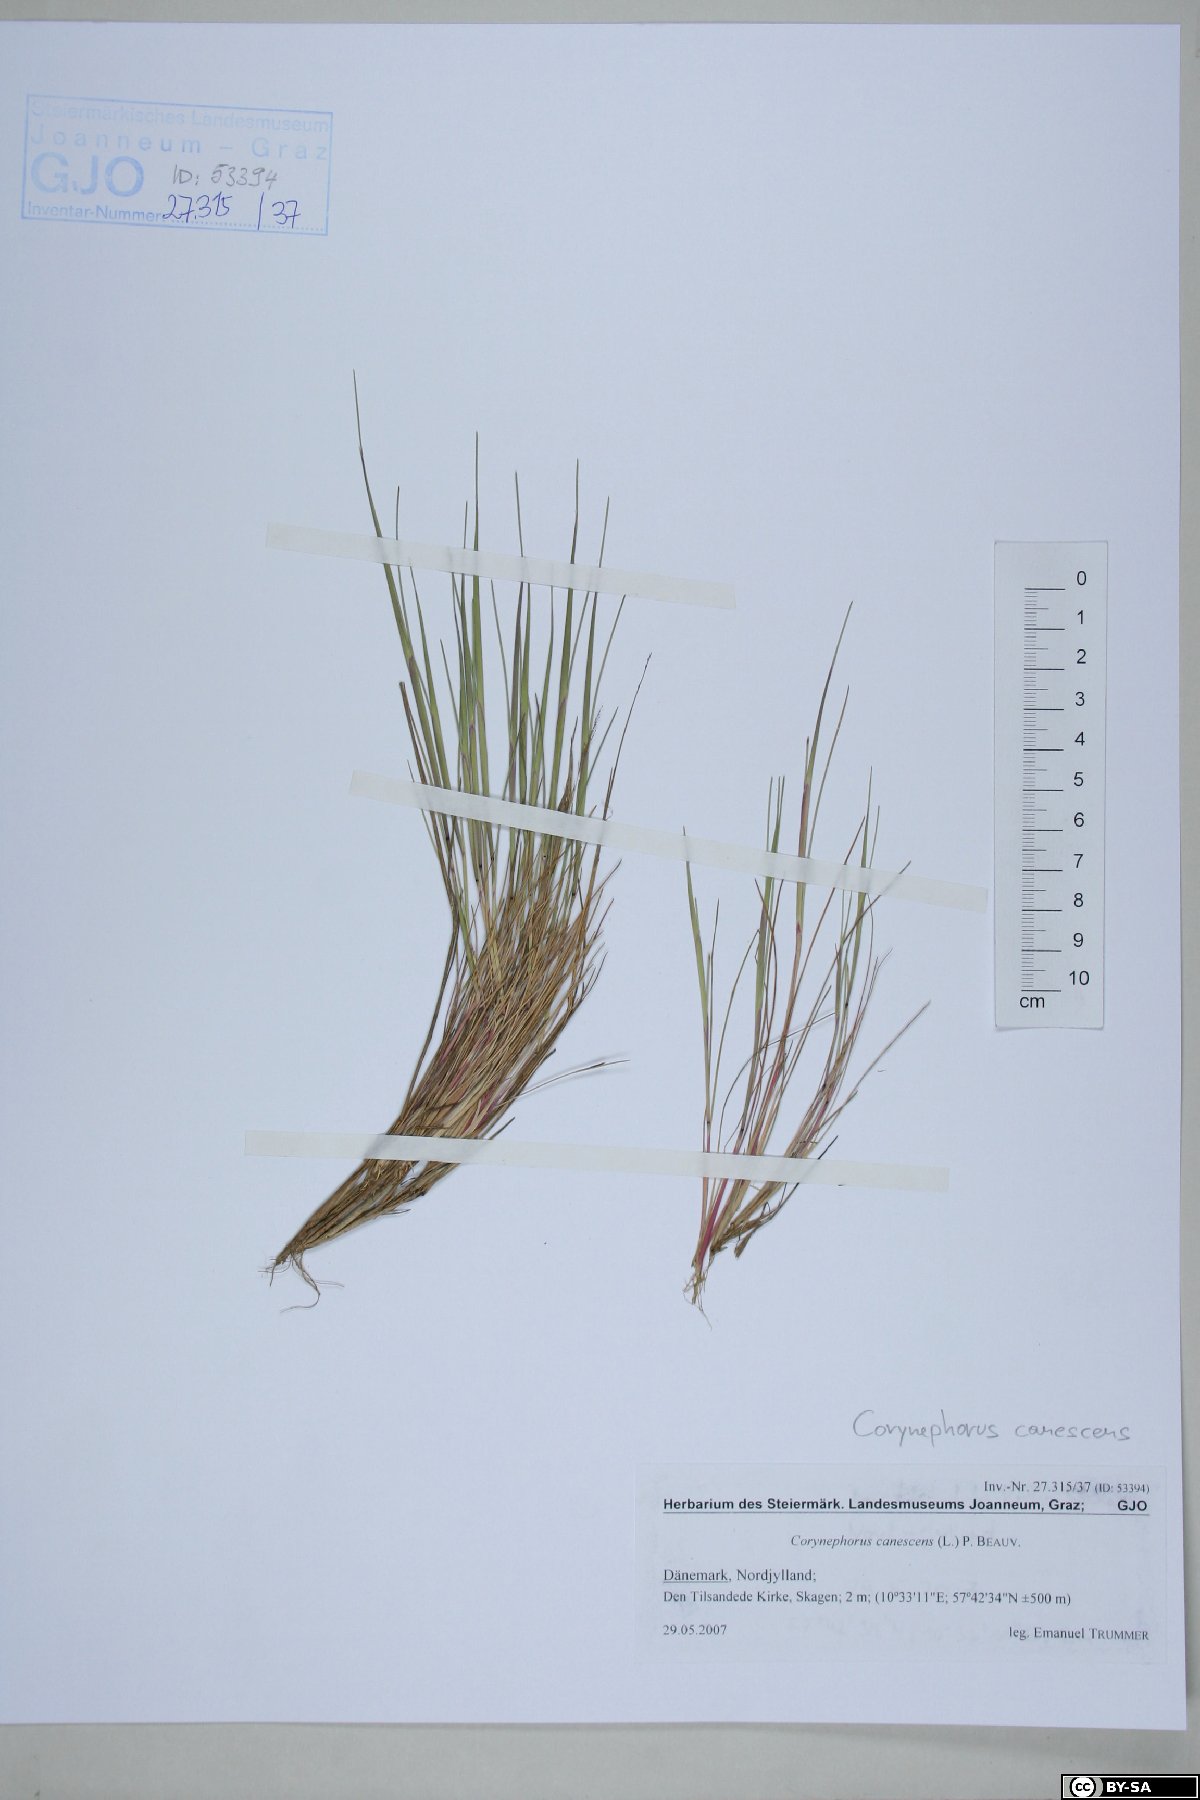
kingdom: Plantae
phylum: Tracheophyta
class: Liliopsida
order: Poales
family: Poaceae
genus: Corynephorus
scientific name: Corynephorus canescens
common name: Grey hair-grass
